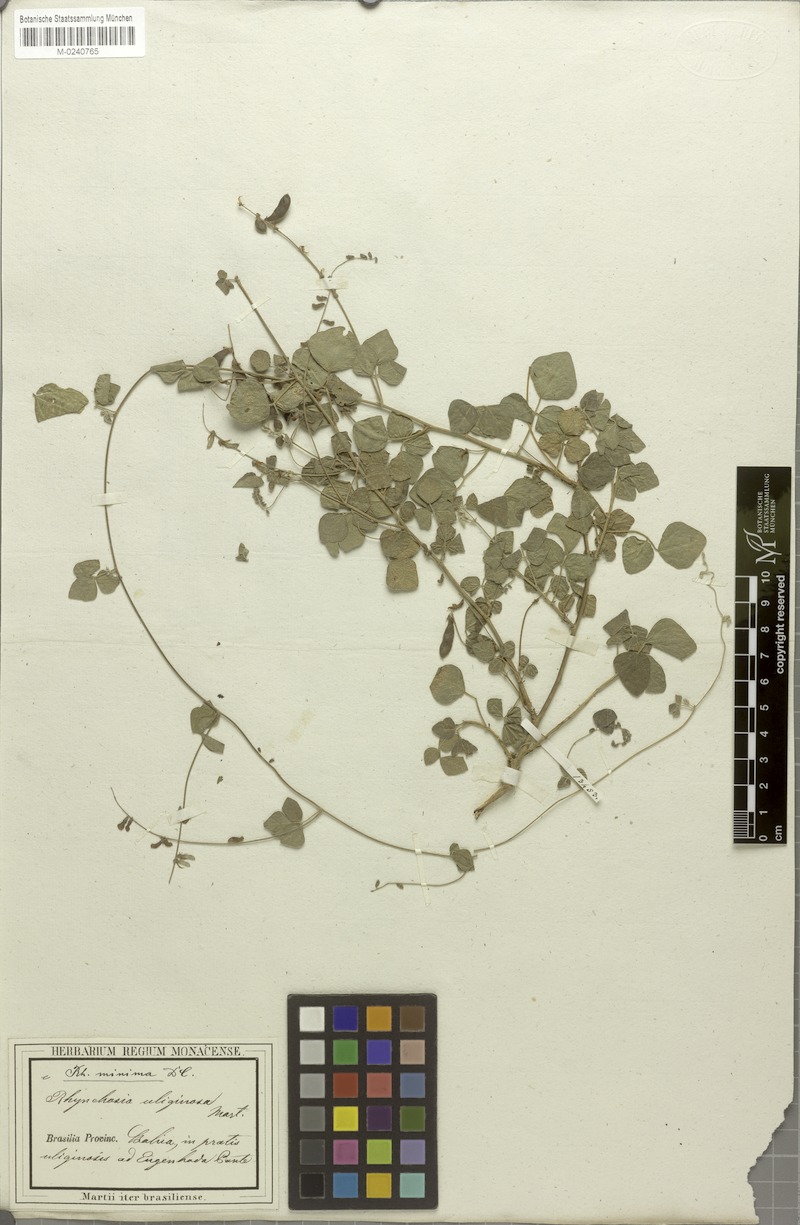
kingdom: Plantae
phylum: Tracheophyta
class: Magnoliopsida
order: Fabales
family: Fabaceae
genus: Rhynchosia
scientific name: Rhynchosia minima
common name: Least snoutbean
